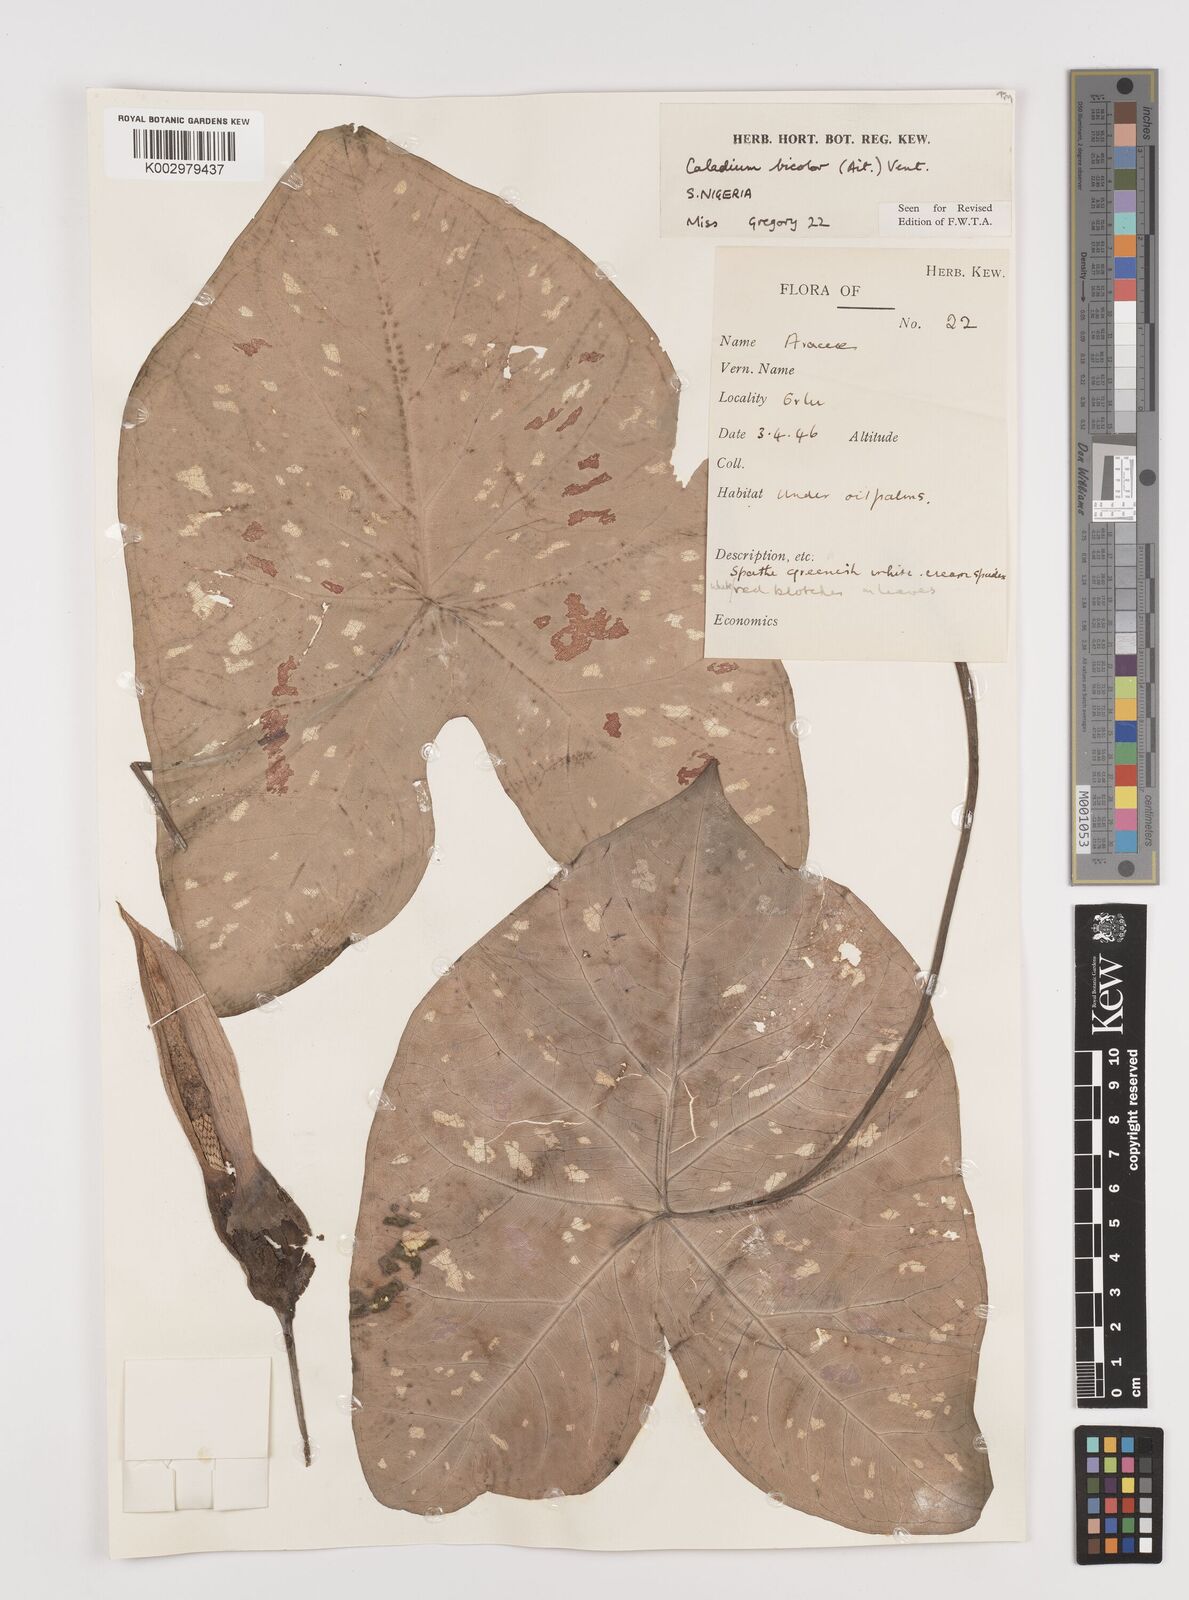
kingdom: Plantae
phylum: Tracheophyta
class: Liliopsida
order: Alismatales
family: Araceae
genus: Caladium
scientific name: Caladium bicolor
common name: Artist's pallet
